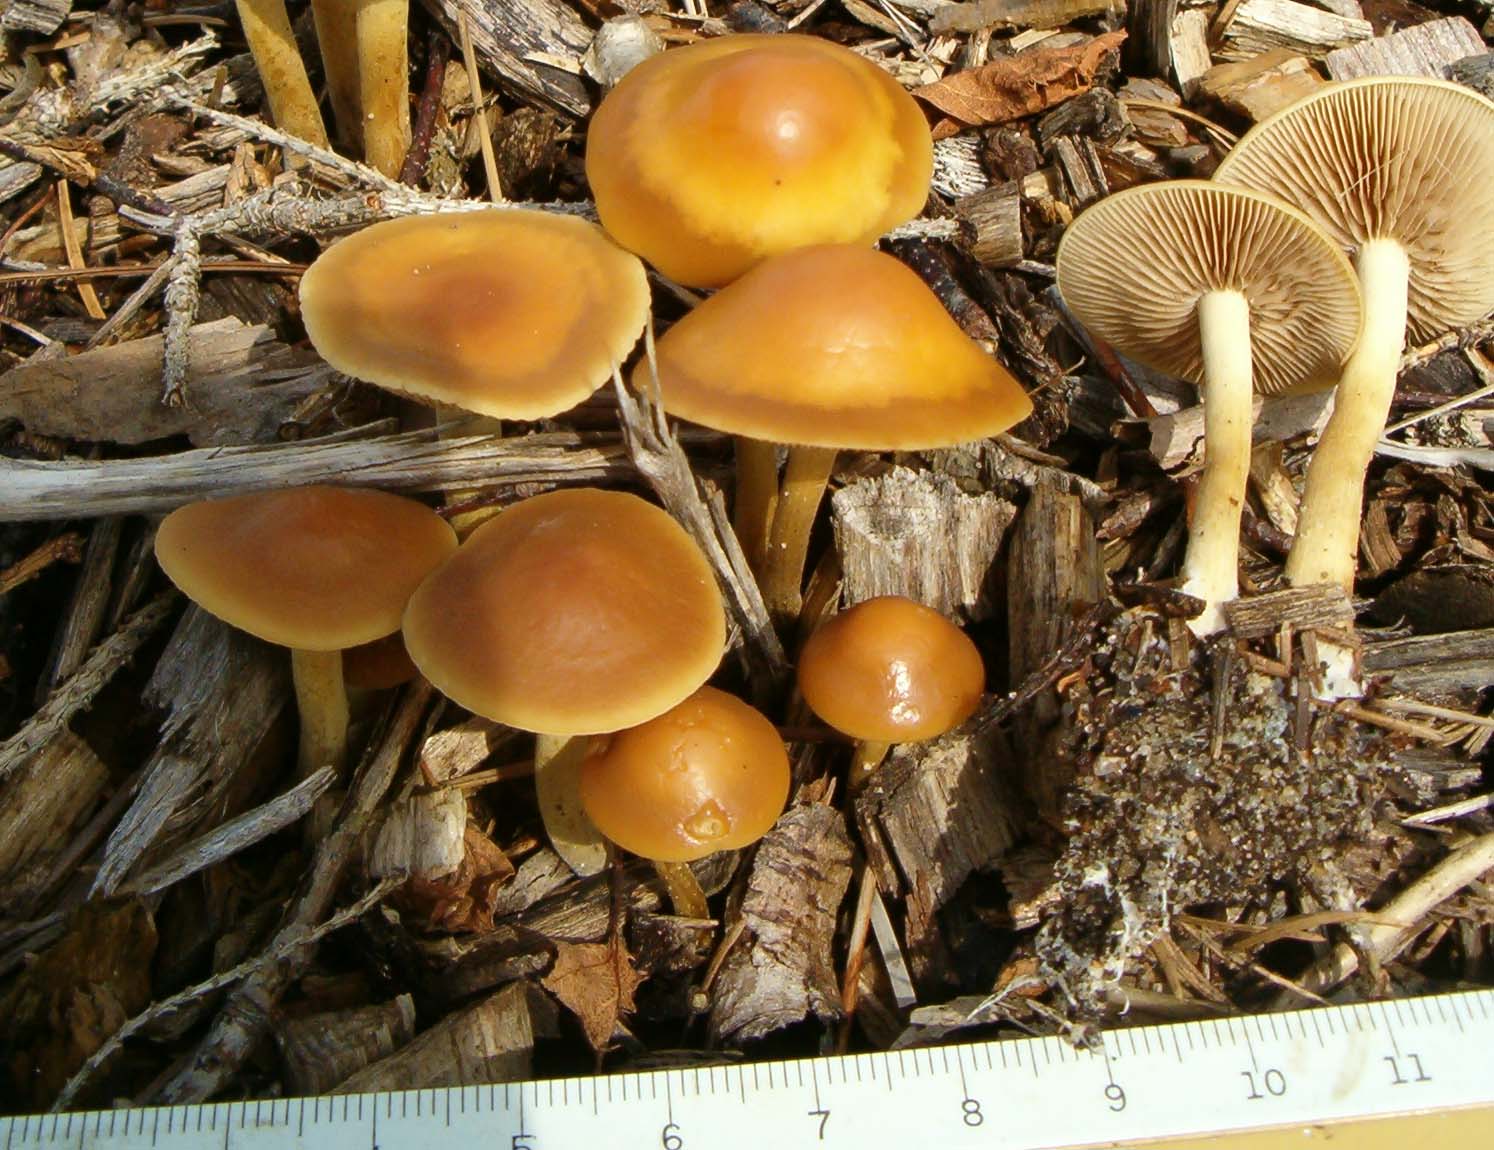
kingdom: Fungi
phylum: Basidiomycota
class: Agaricomycetes
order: Agaricales
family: Strophariaceae
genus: Agrocybe
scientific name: Agrocybe arvalis
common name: rodslående agerhat
